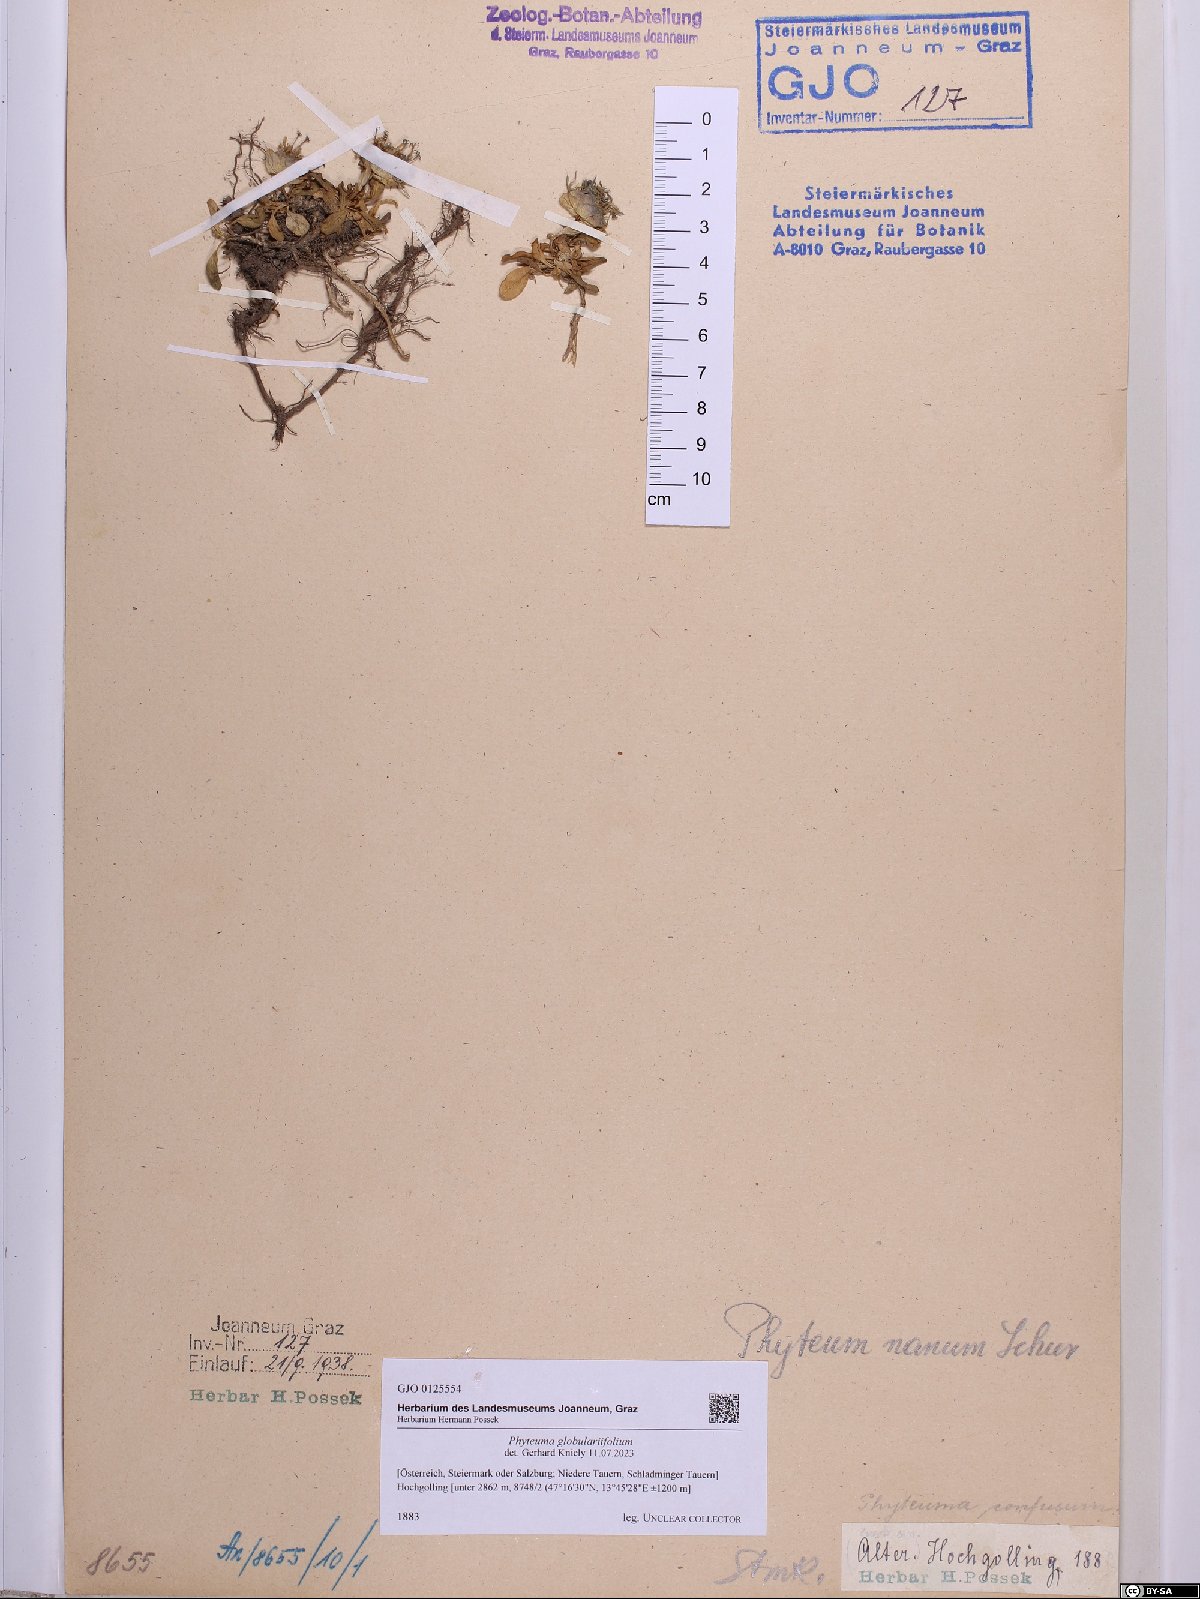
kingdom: Plantae
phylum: Tracheophyta
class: Magnoliopsida
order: Asterales
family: Campanulaceae
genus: Phyteuma
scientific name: Phyteuma globulariifolium
